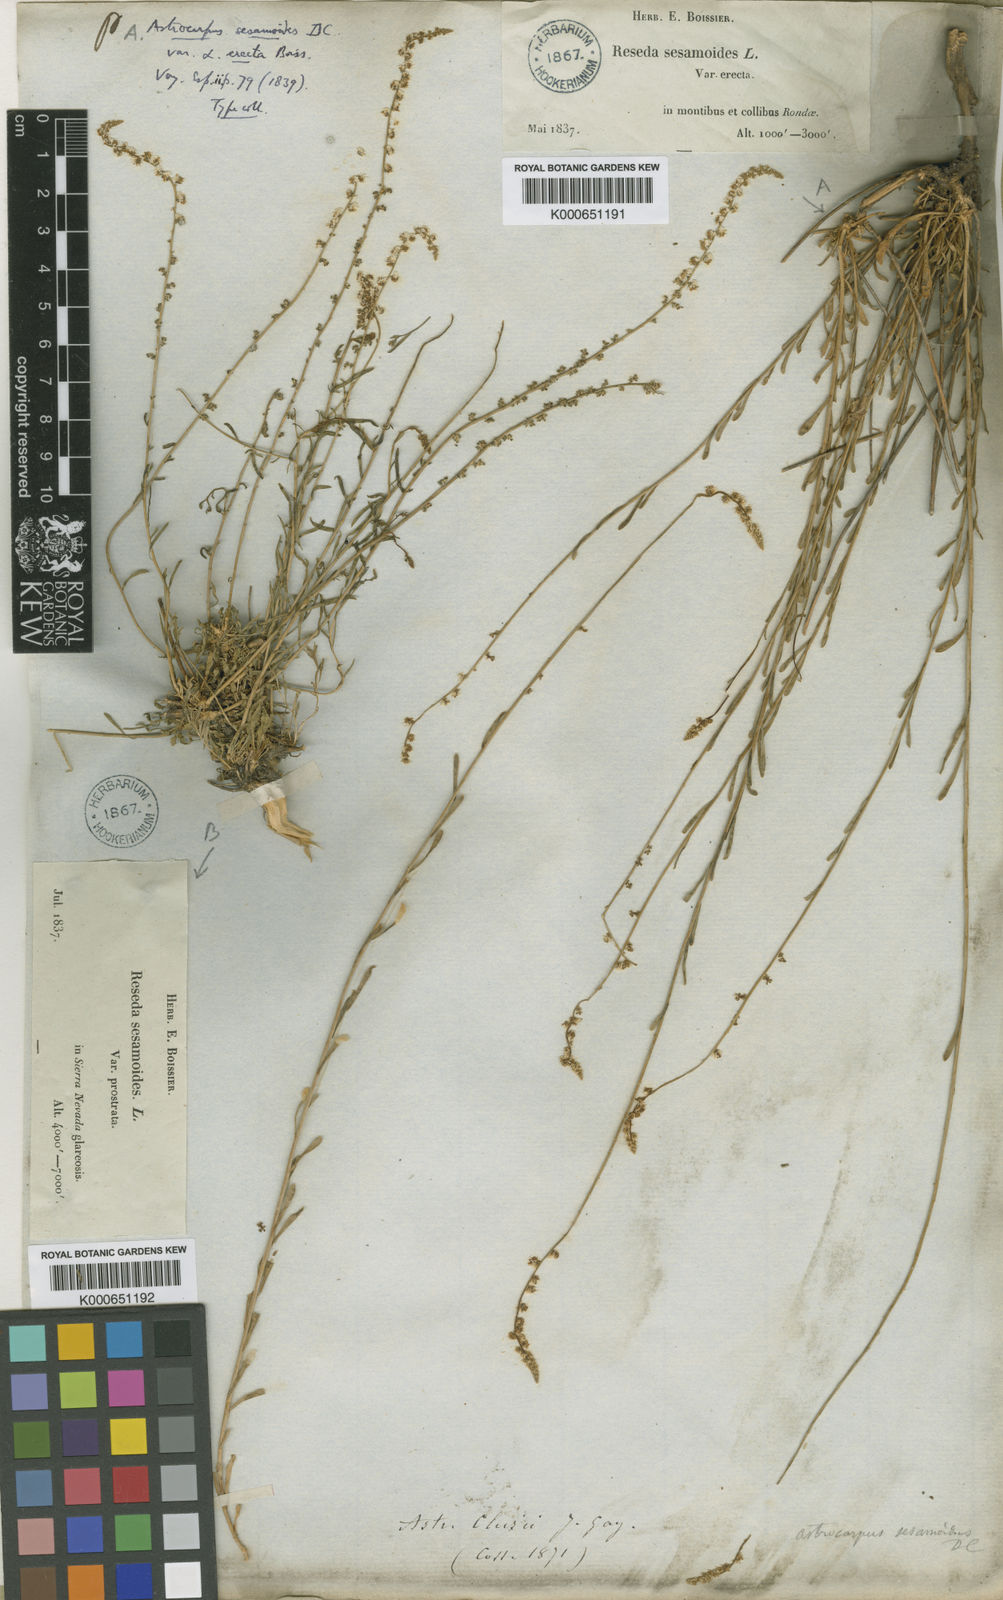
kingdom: Plantae
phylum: Tracheophyta
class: Magnoliopsida
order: Brassicales
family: Resedaceae
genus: Sesamoides
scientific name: Sesamoides
